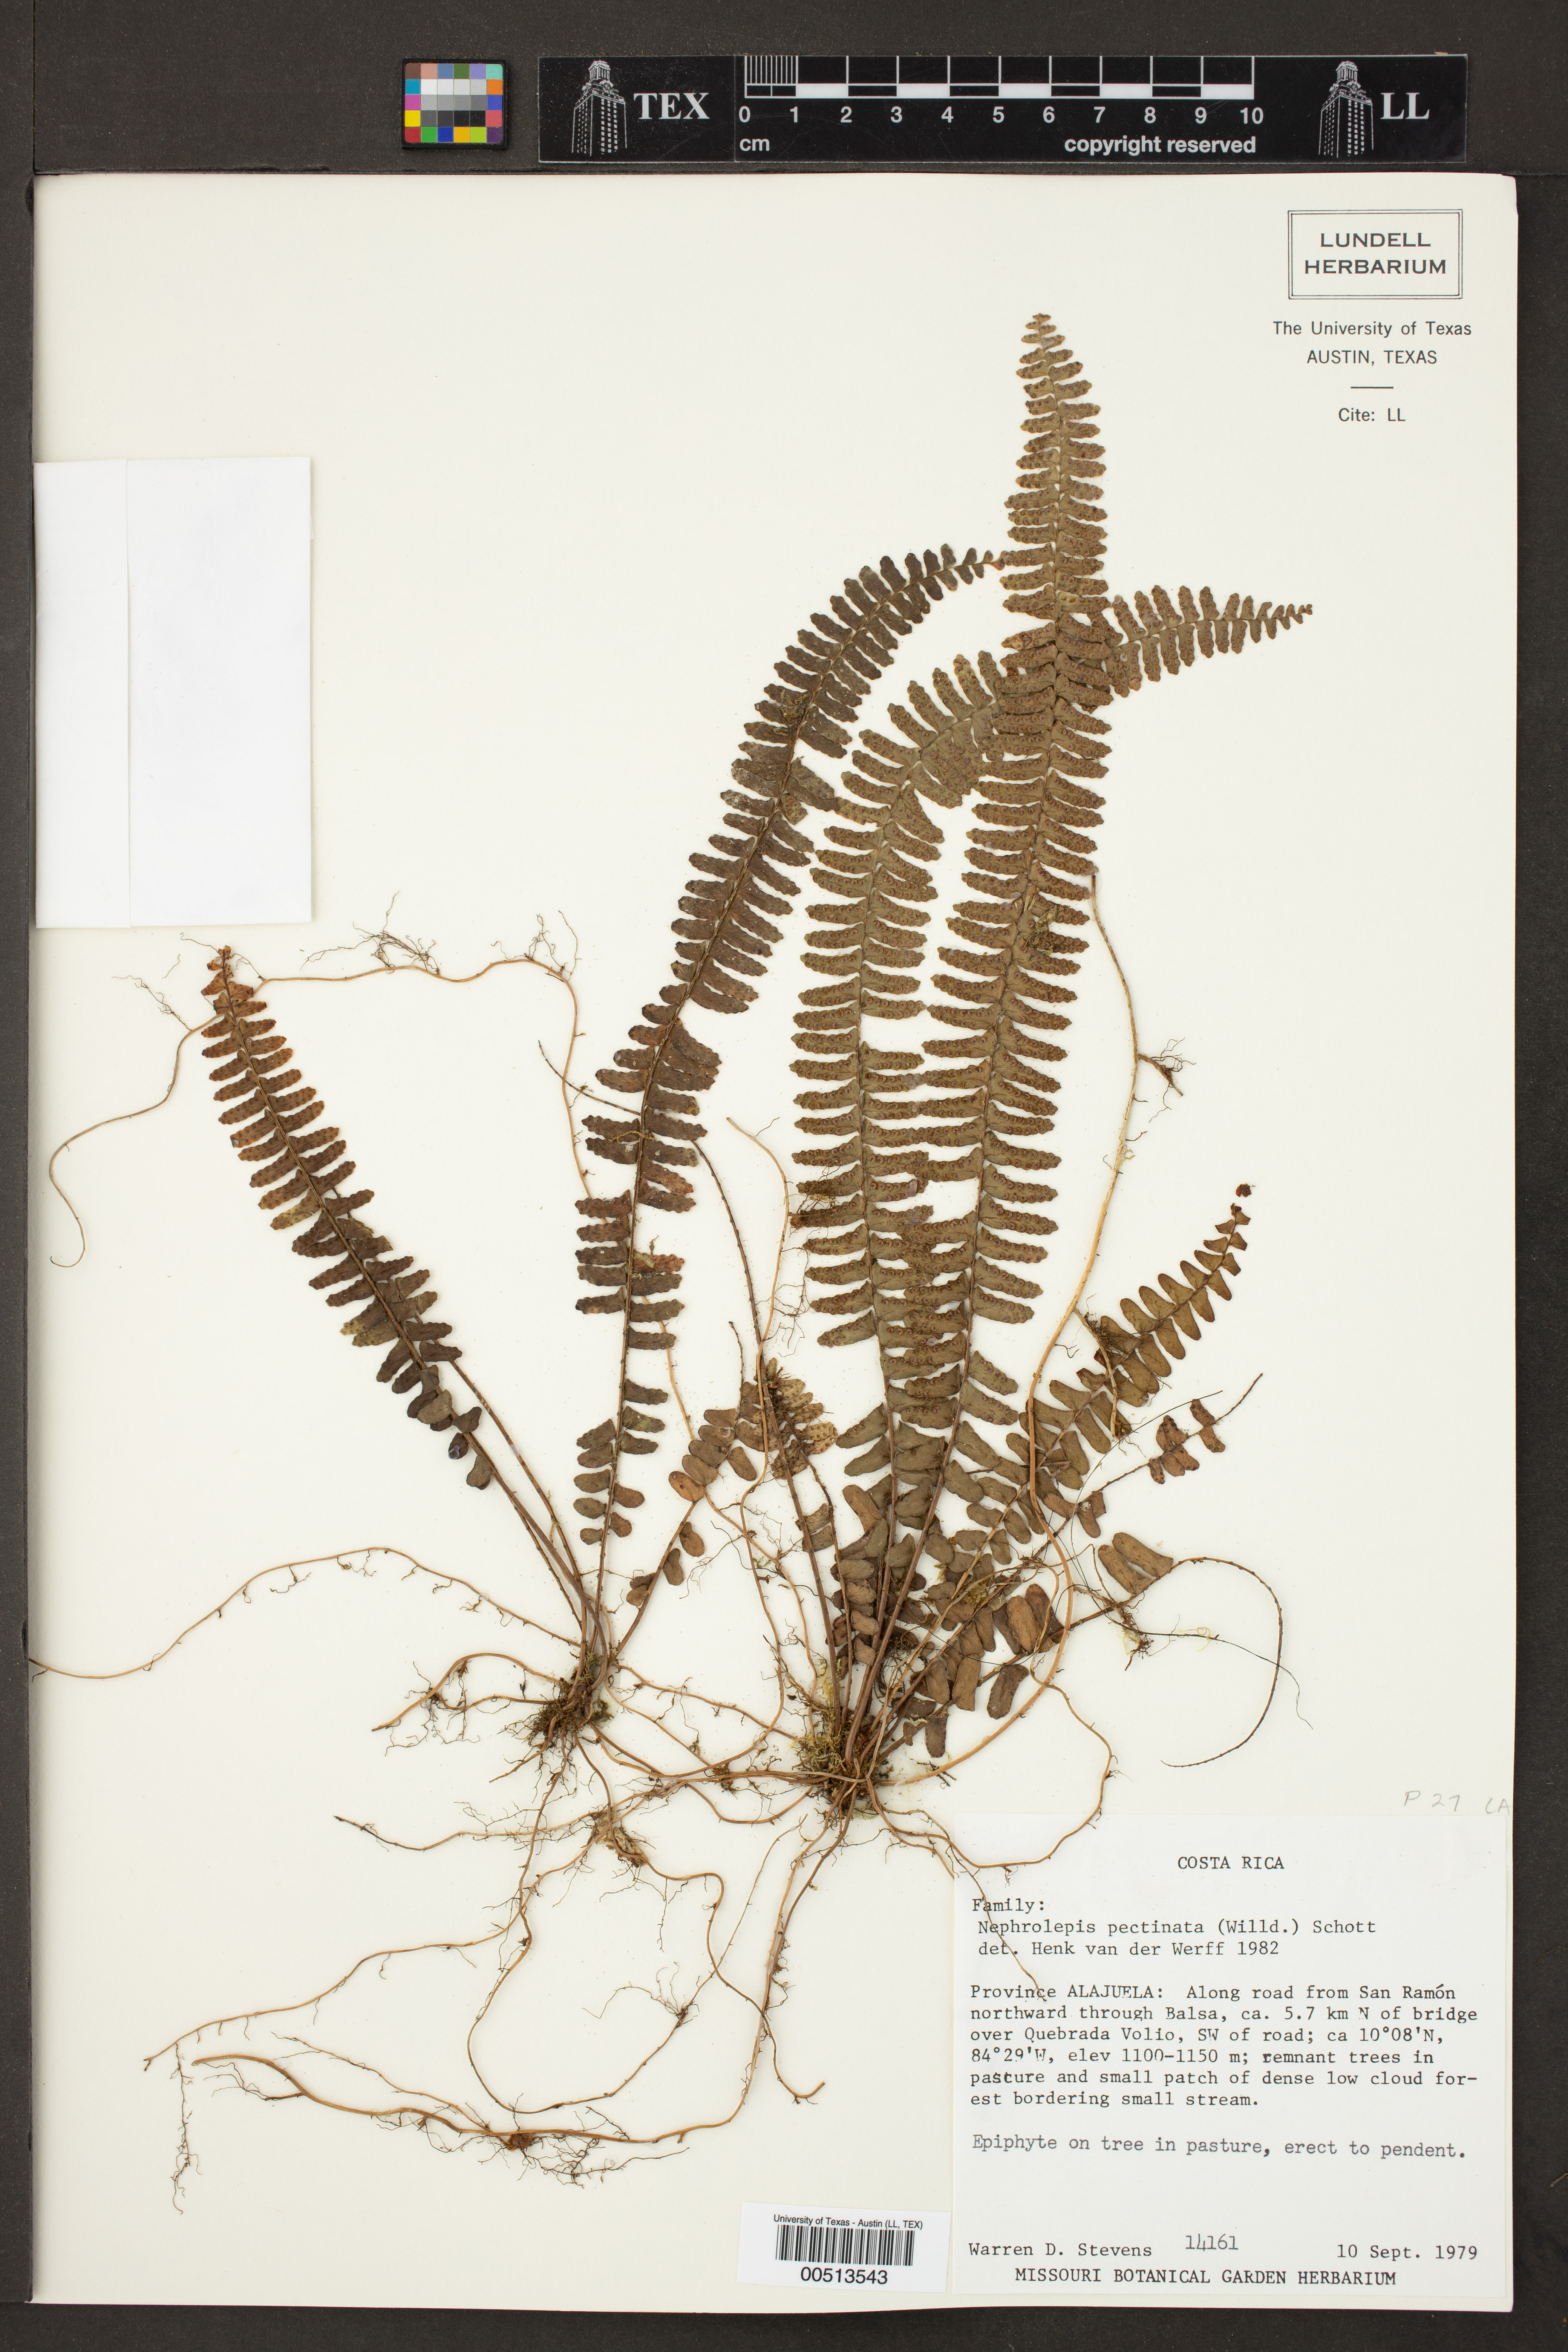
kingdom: Plantae
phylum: Tracheophyta
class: Polypodiopsida
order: Polypodiales
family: Nephrolepidaceae
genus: Nephrolepis
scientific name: Nephrolepis pectinata
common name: Basket fern
